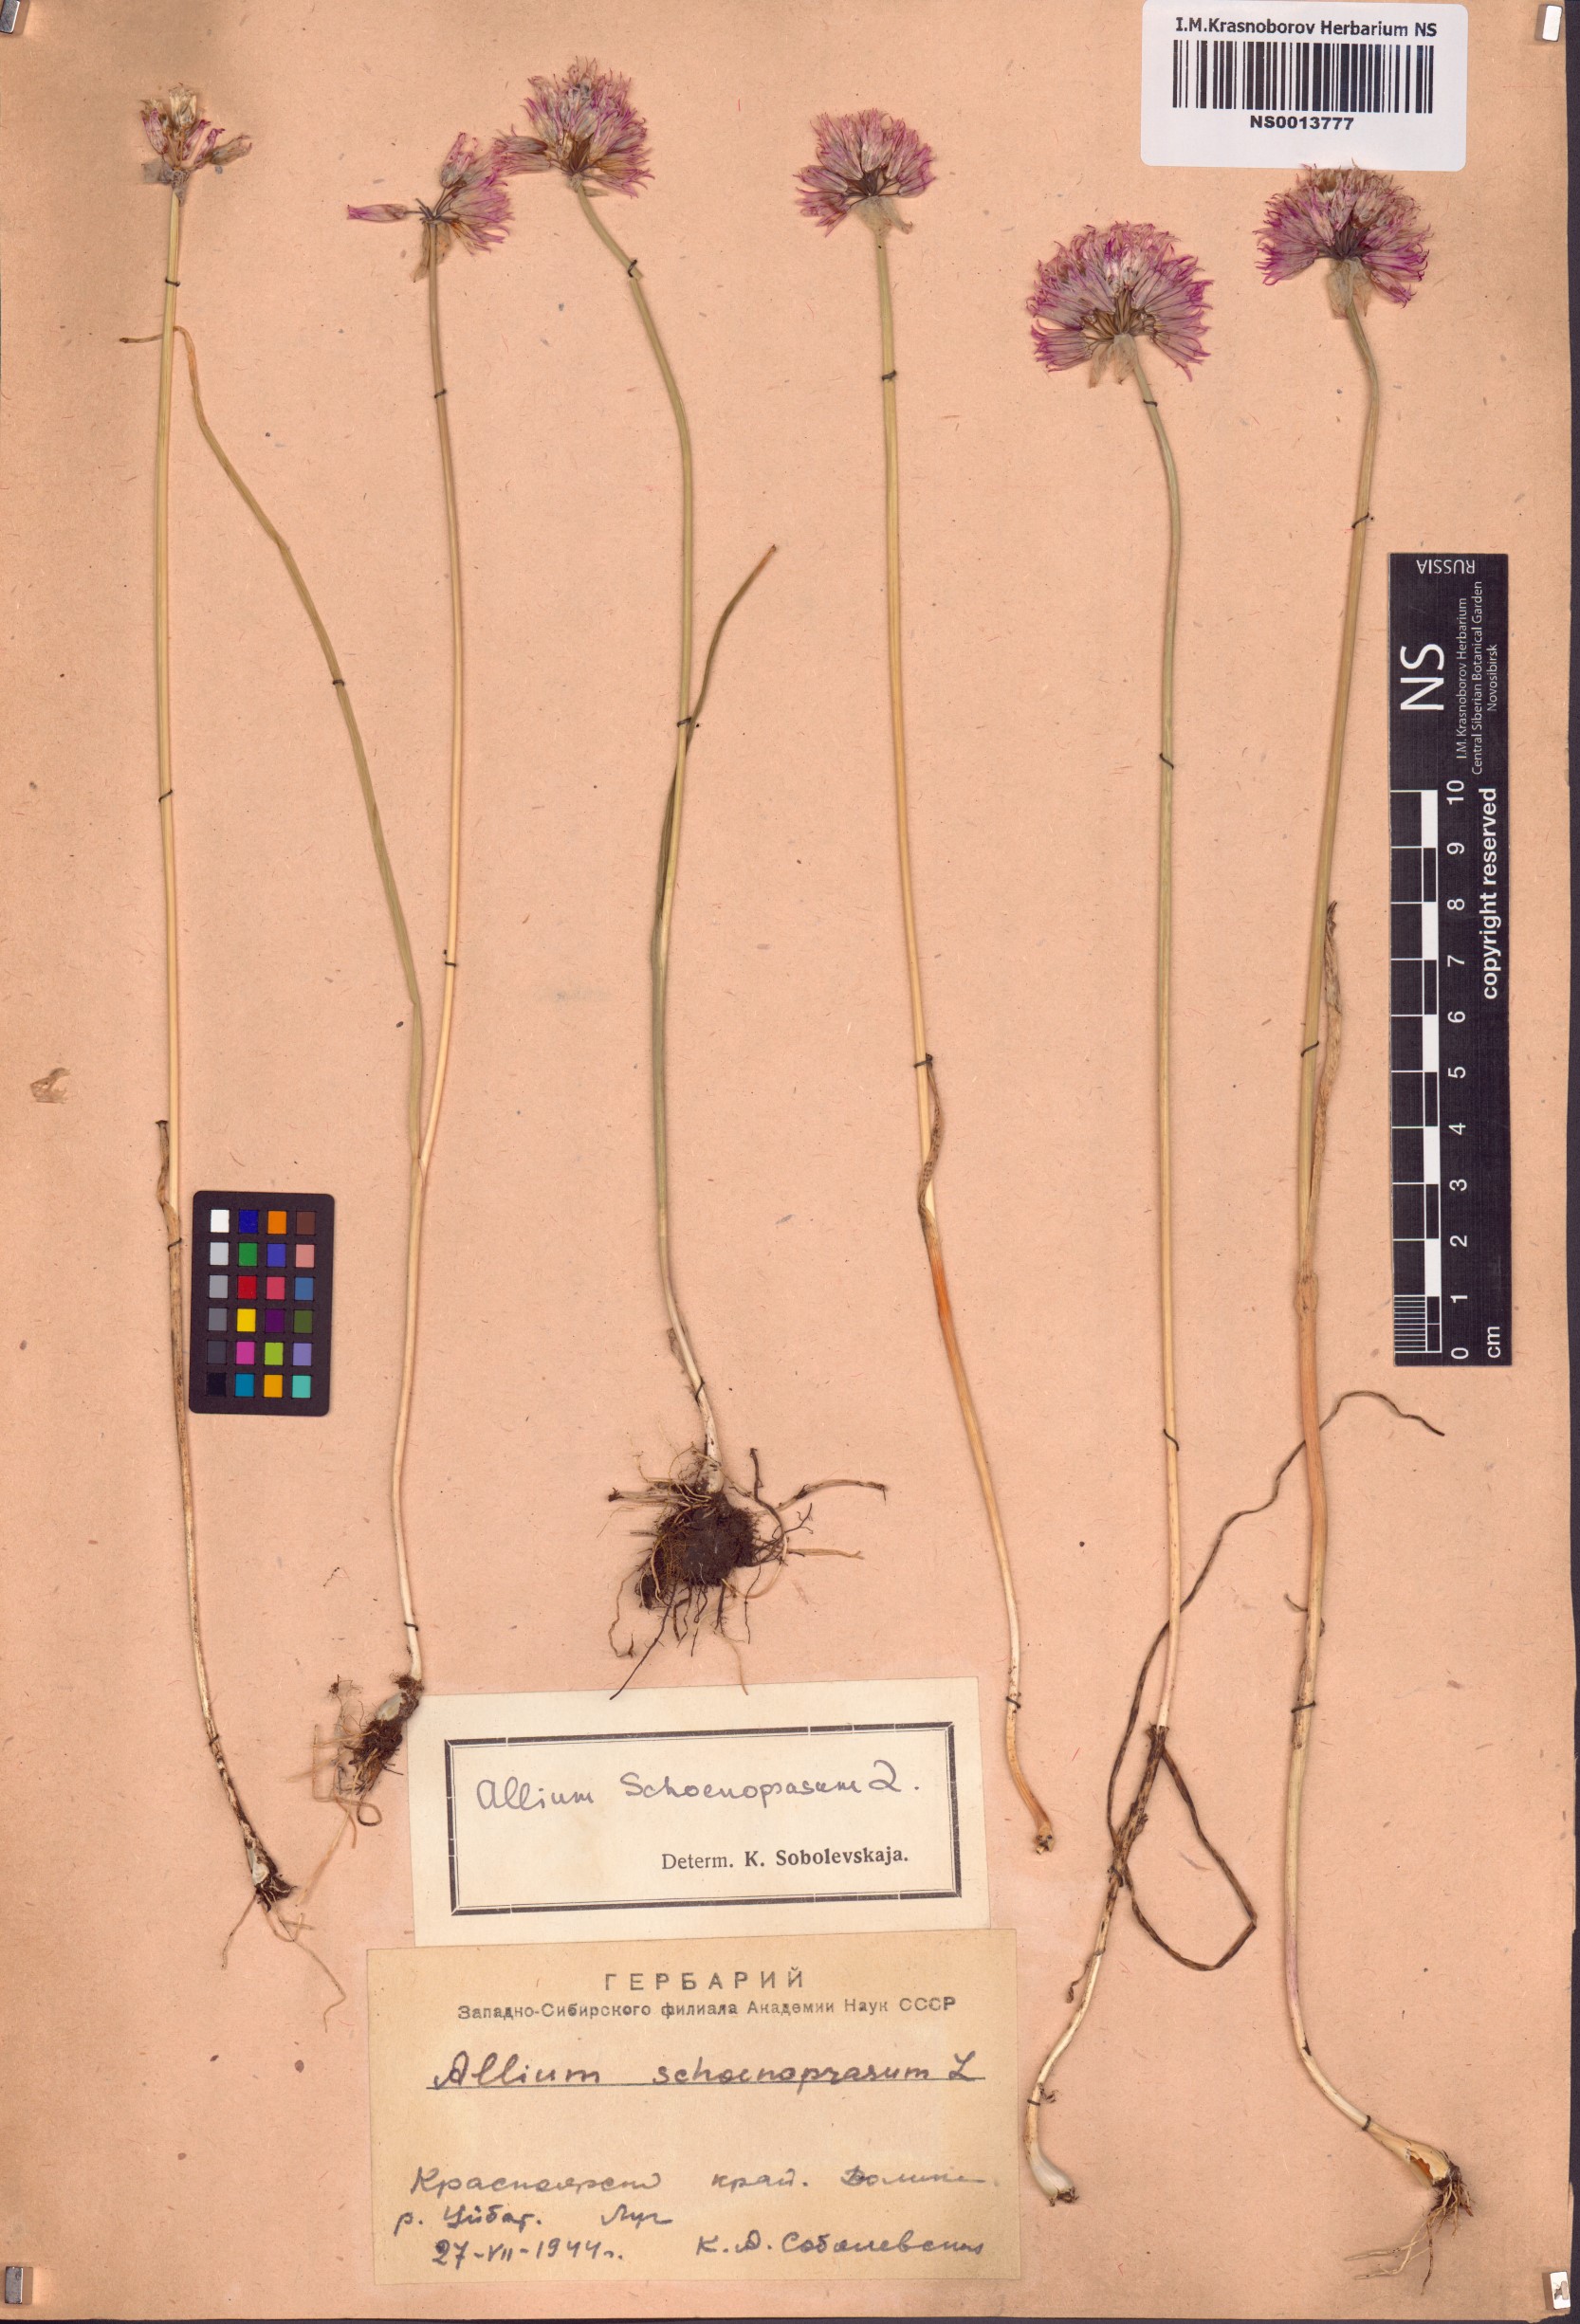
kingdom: Plantae
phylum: Tracheophyta
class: Liliopsida
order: Asparagales
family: Amaryllidaceae
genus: Allium
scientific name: Allium schoenoprasum
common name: Chives
